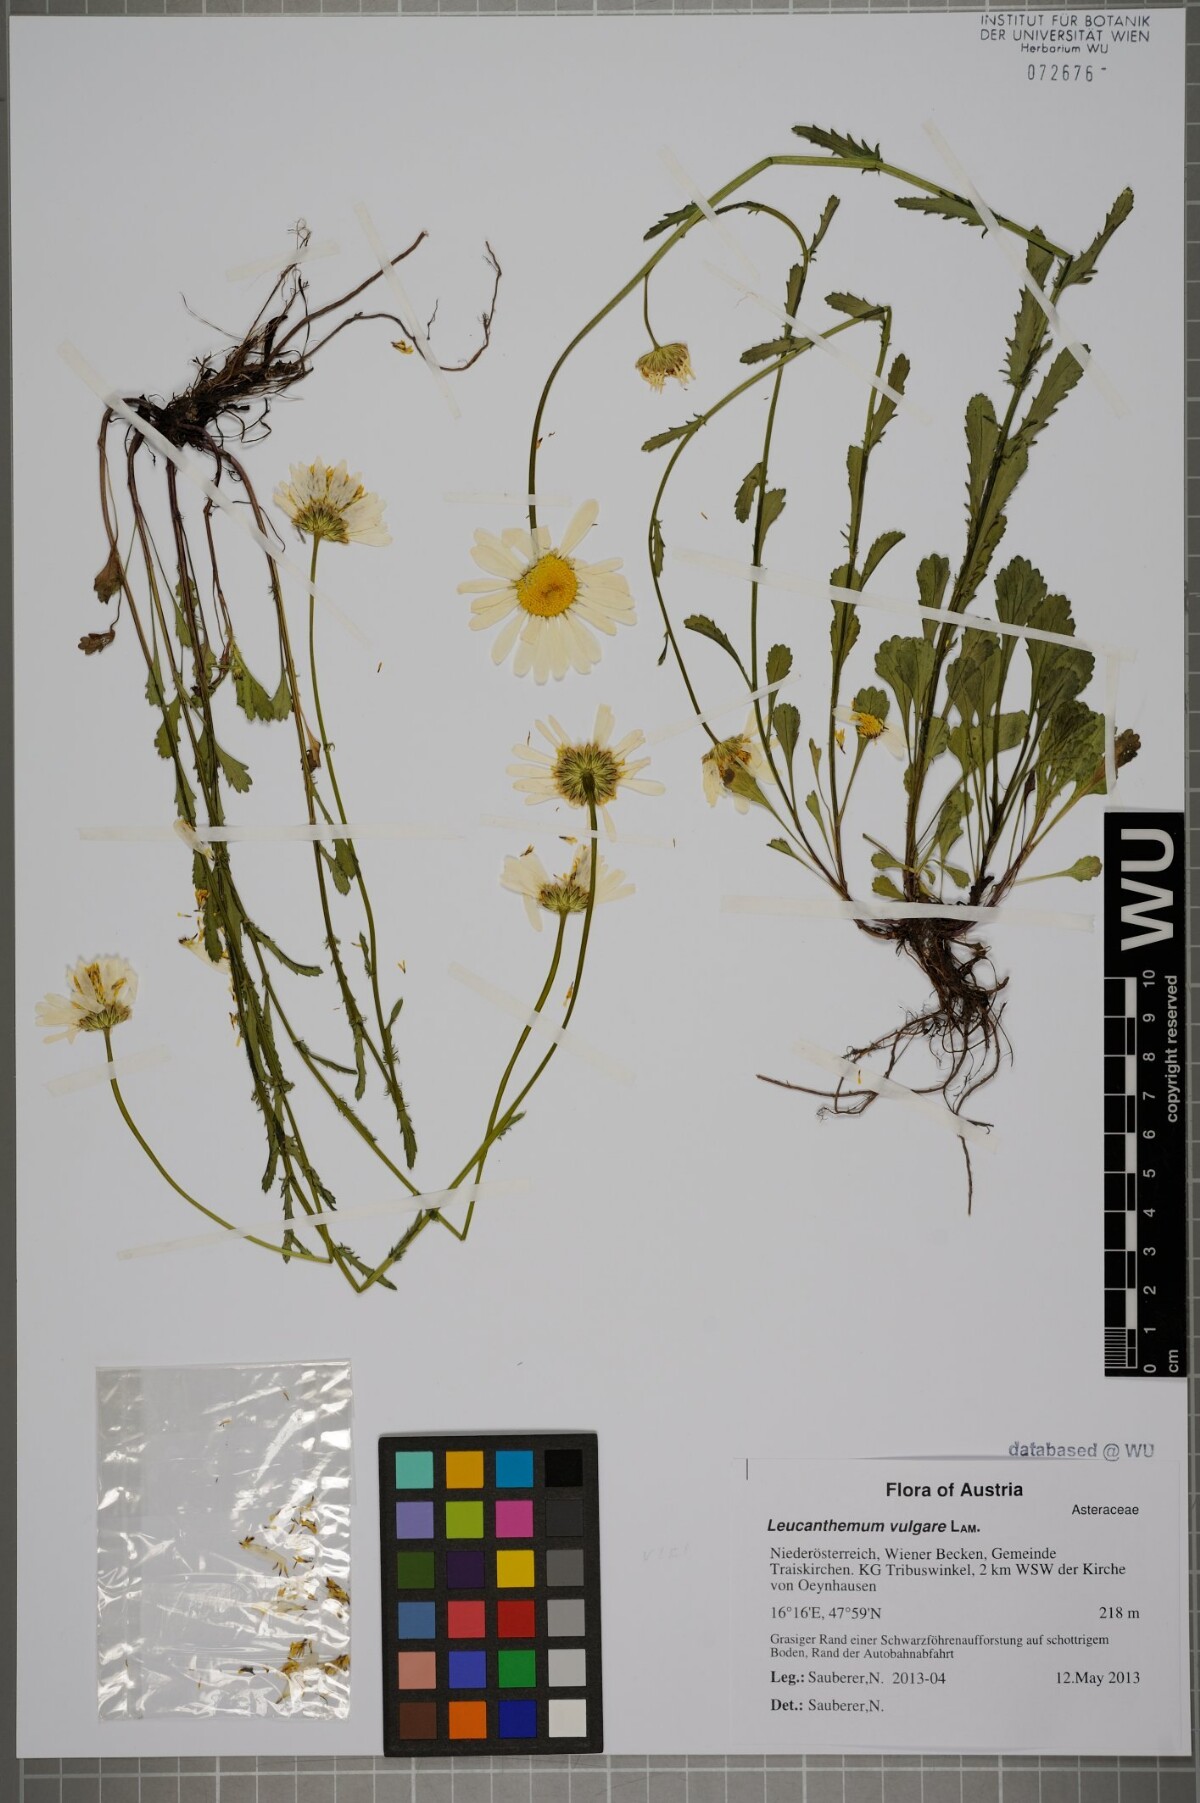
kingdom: Plantae
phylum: Tracheophyta
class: Magnoliopsida
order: Asterales
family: Asteraceae
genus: Leucanthemum
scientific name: Leucanthemum vulgare
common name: Oxeye daisy
